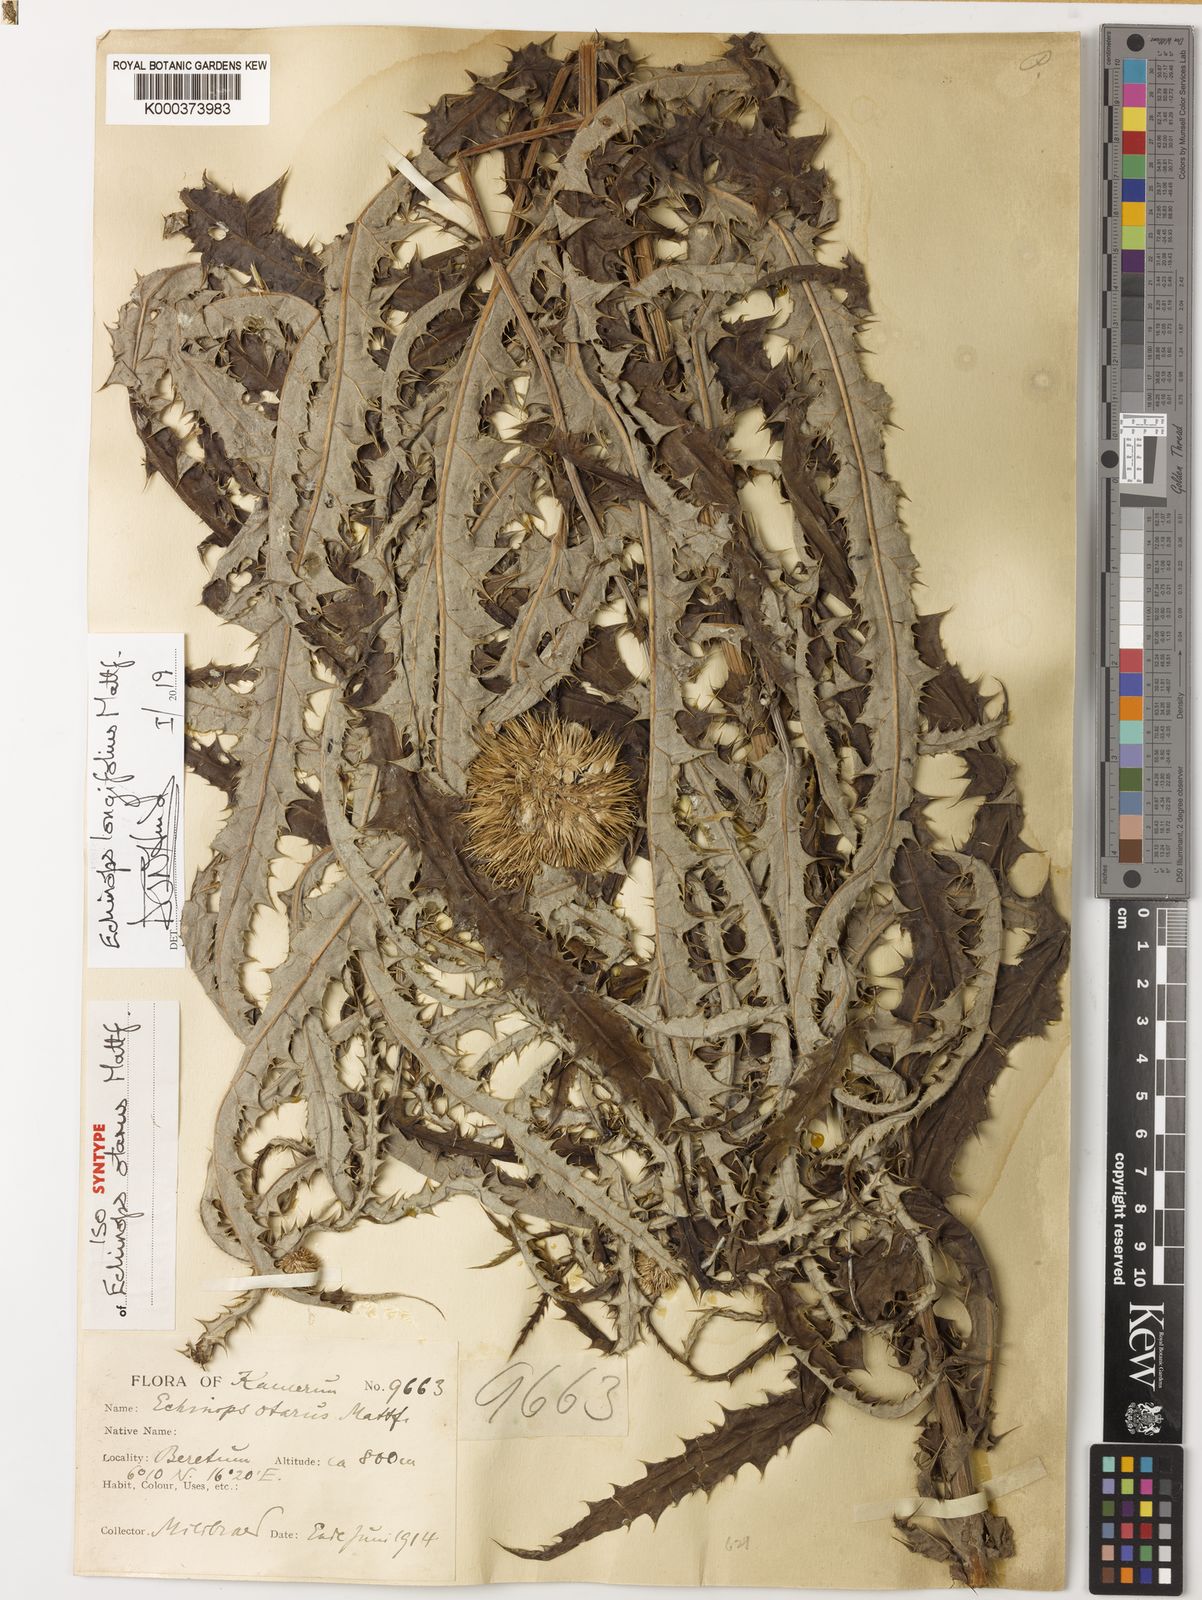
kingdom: Plantae
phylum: Tracheophyta
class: Magnoliopsida
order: Asterales
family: Asteraceae
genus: Echinops
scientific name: Echinops
